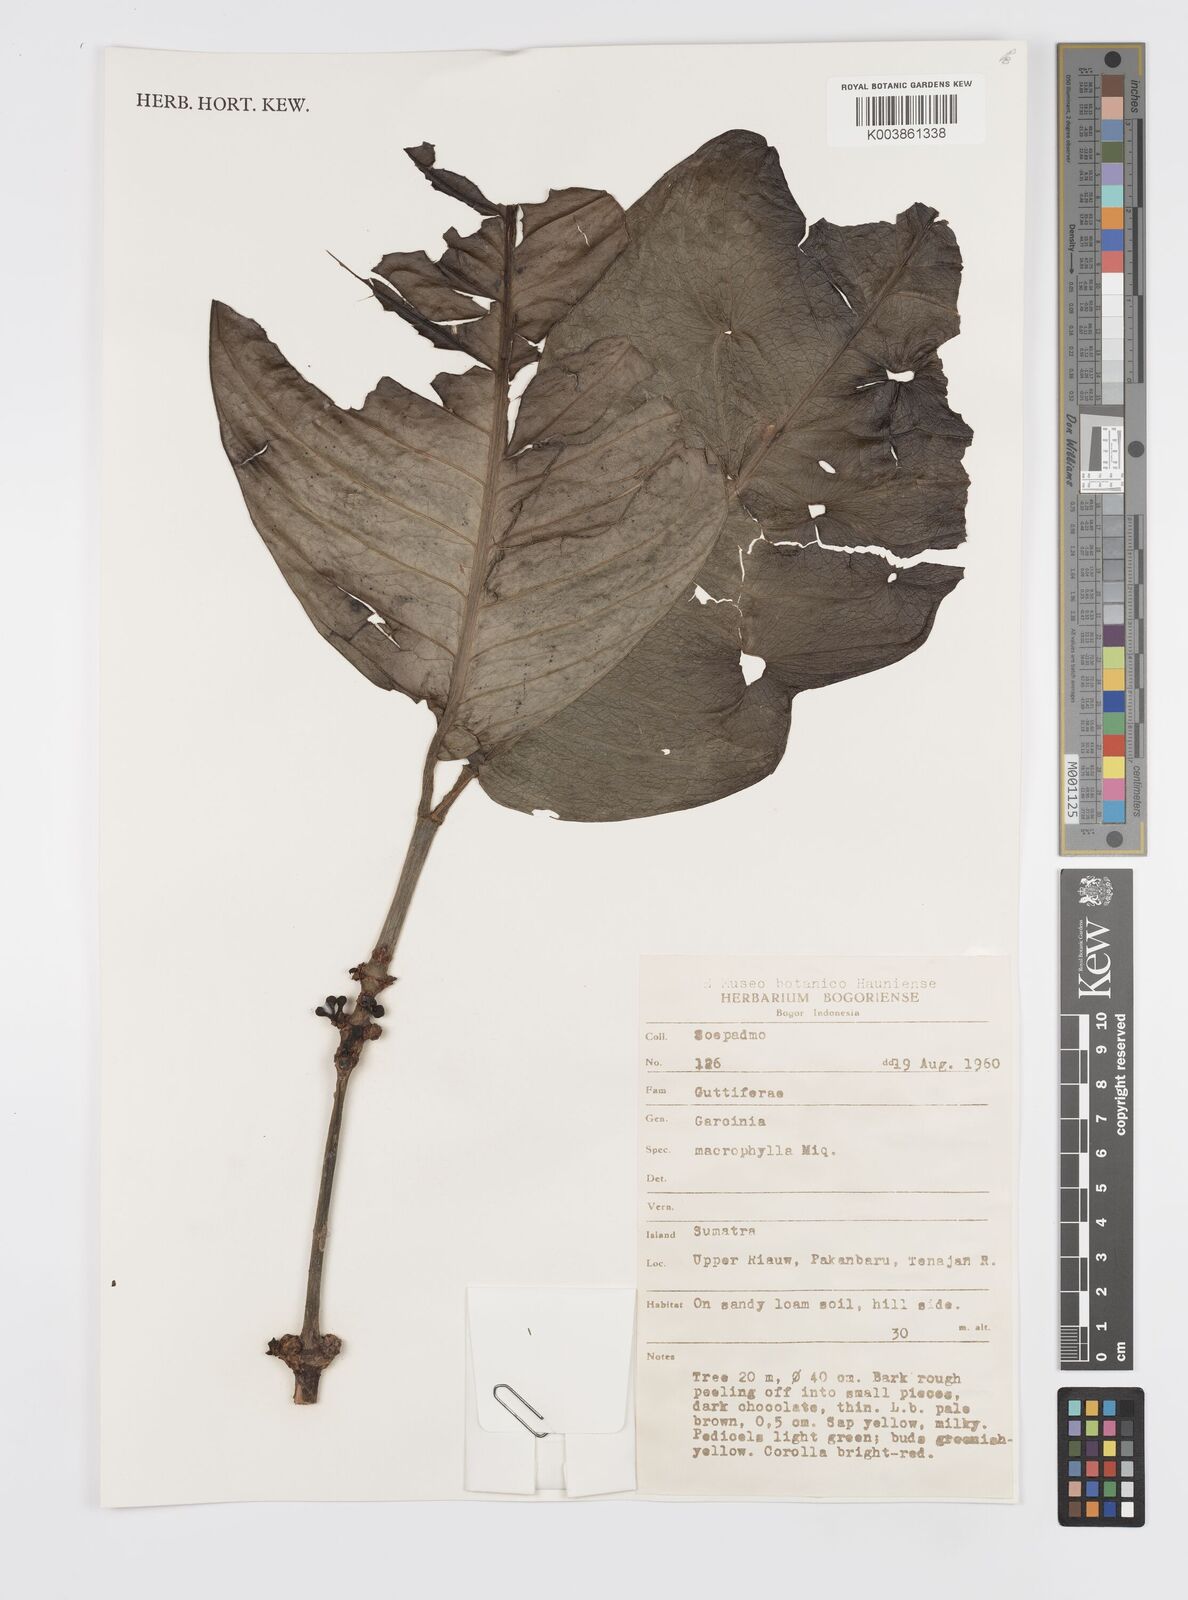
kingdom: Plantae
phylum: Tracheophyta
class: Magnoliopsida
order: Malpighiales
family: Clusiaceae
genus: Garcinia
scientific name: Garcinia
